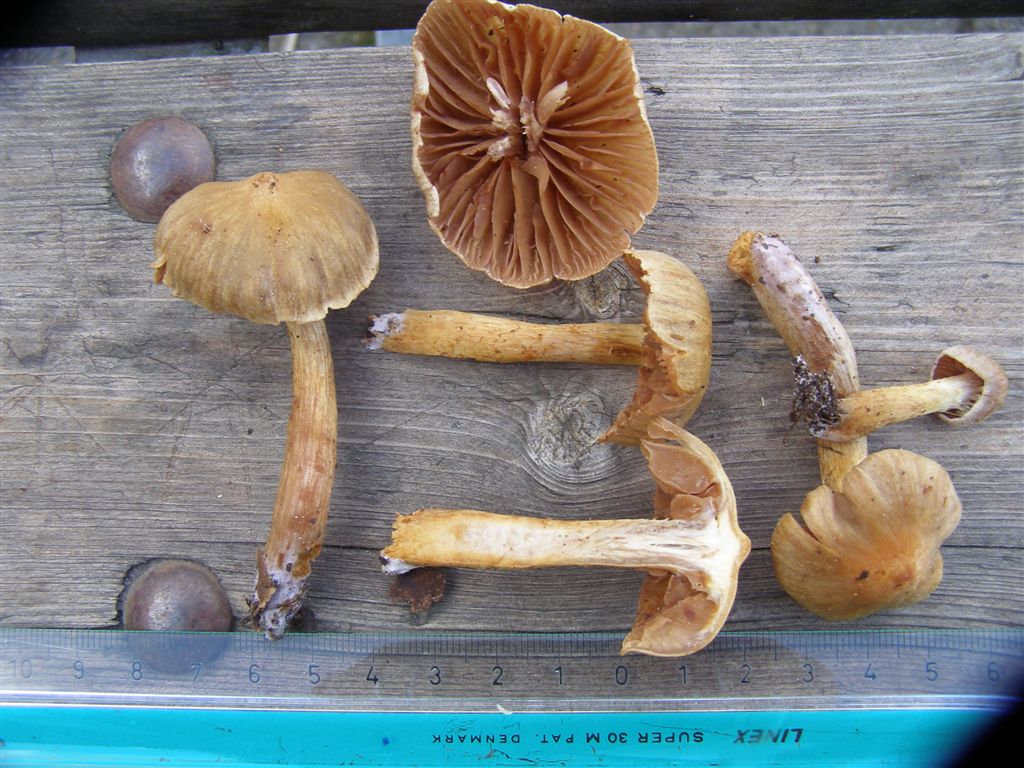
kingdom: Fungi
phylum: Basidiomycota
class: Agaricomycetes
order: Agaricales
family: Cortinariaceae
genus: Cortinarius
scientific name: Cortinarius saniosus
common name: gultrævlet slørhat
